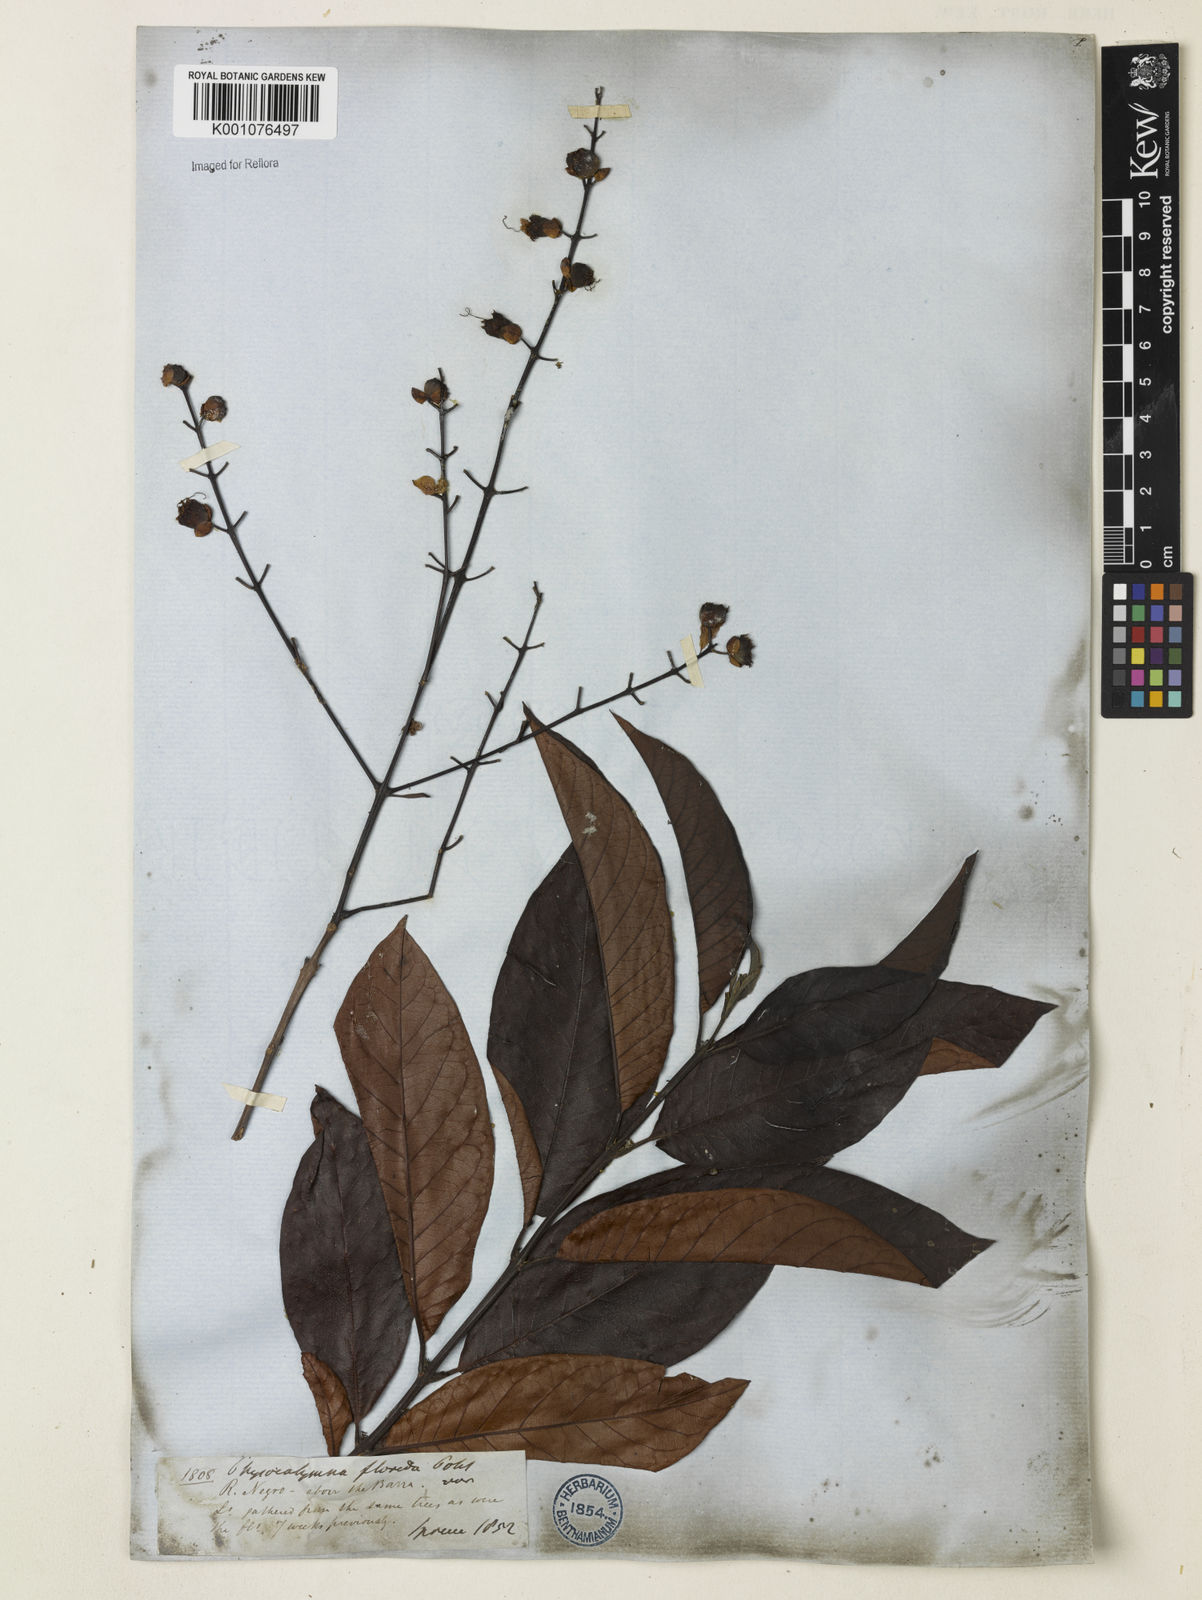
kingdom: Plantae
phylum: Tracheophyta
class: Magnoliopsida
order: Myrtales
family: Lythraceae
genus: Physocalymma
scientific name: Physocalymma scaberrimum
